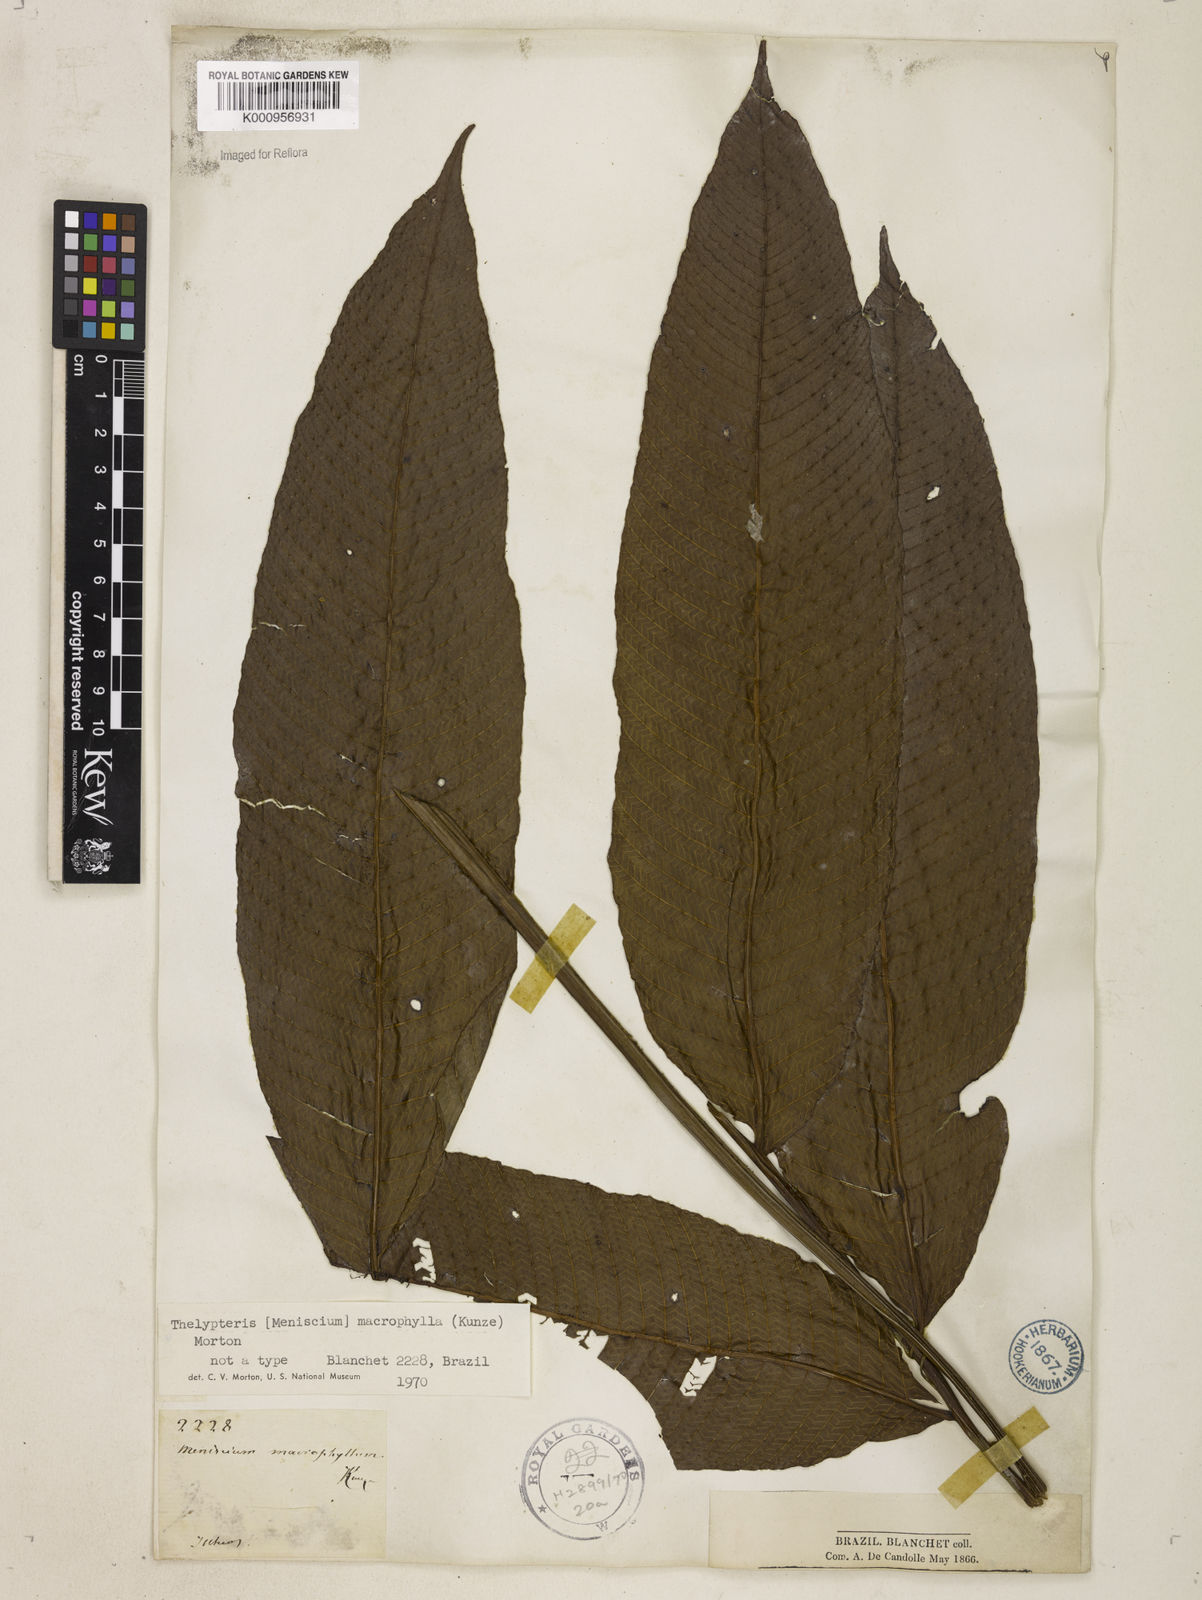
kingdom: Plantae
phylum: Tracheophyta
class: Polypodiopsida
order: Polypodiales
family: Thelypteridaceae
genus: Meniscium
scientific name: Meniscium macrophyllum
